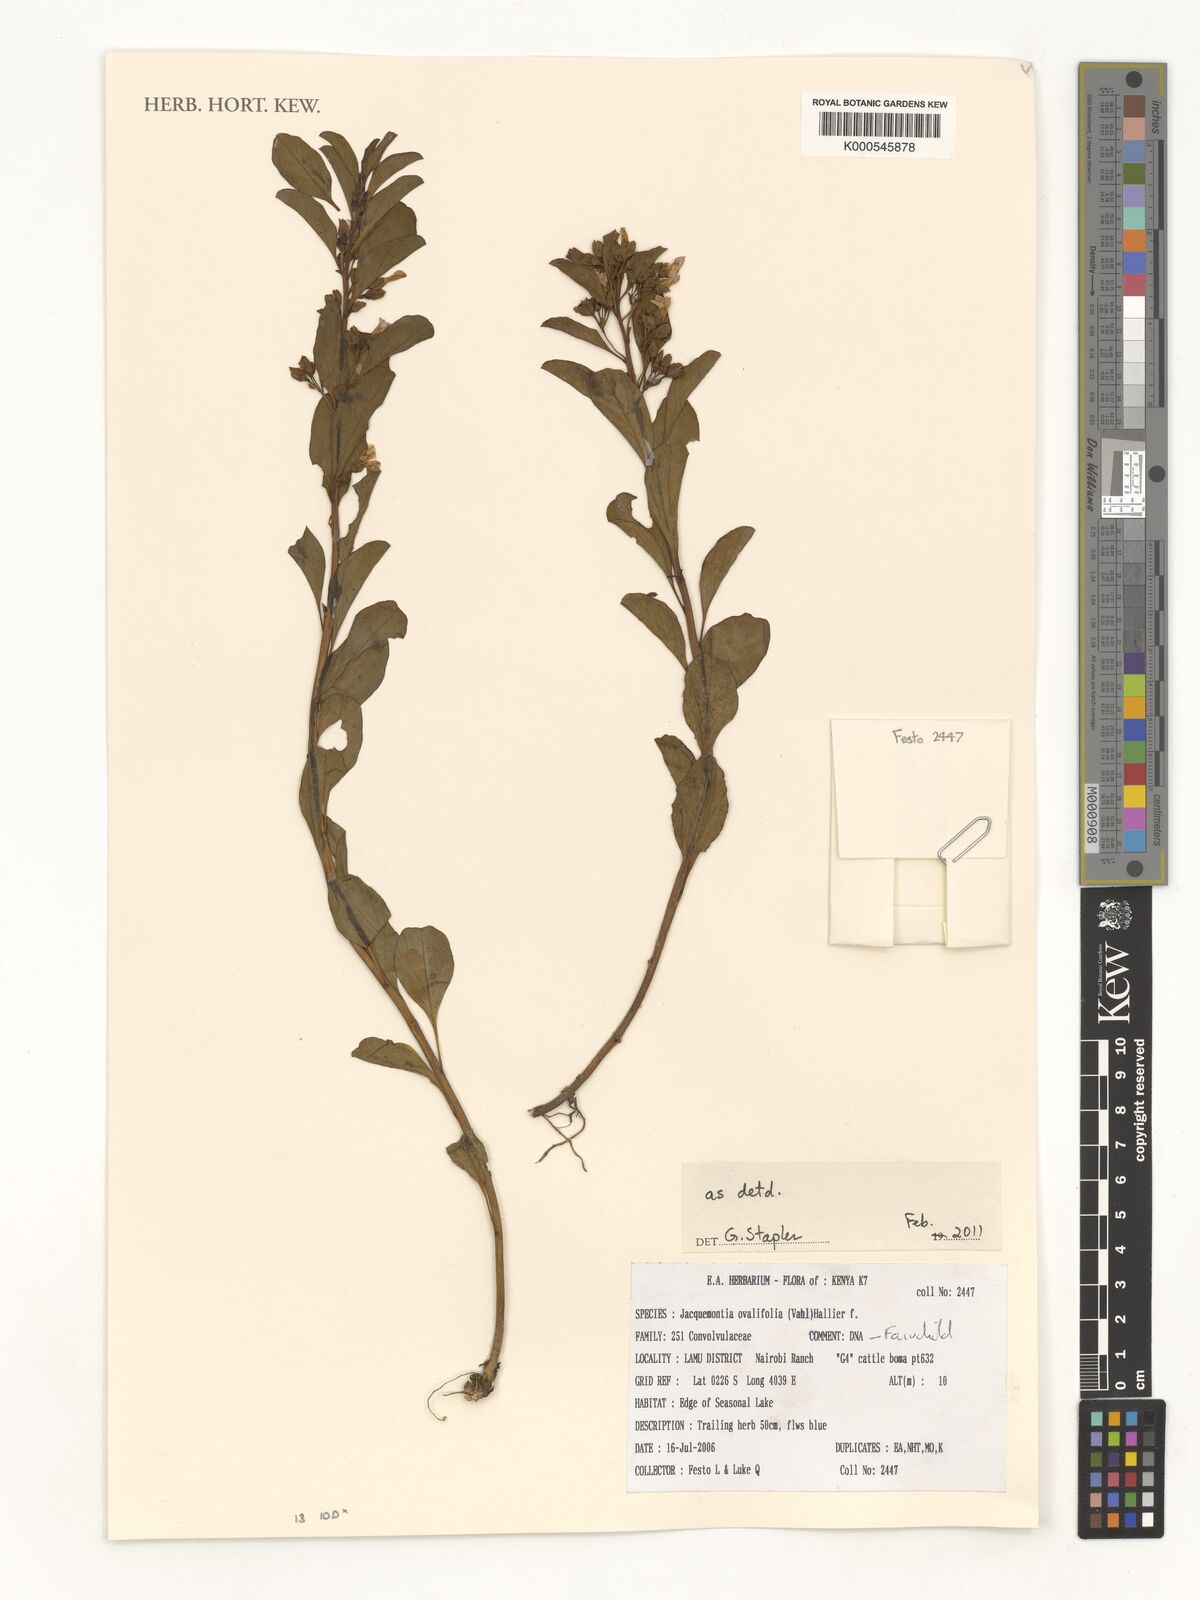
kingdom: Plantae
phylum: Tracheophyta
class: Magnoliopsida
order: Solanales
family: Convolvulaceae
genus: Jacquemontia
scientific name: Jacquemontia ovalifolia
